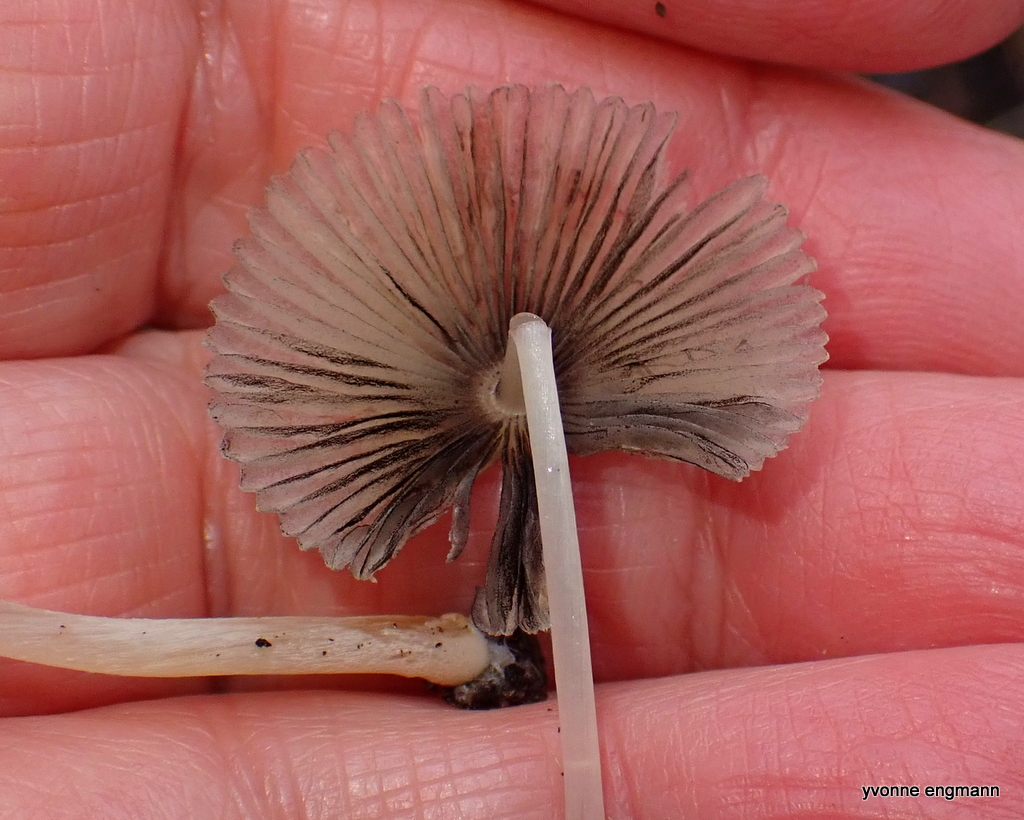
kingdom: Fungi
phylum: Basidiomycota
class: Agaricomycetes
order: Agaricales
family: Psathyrellaceae
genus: Parasola
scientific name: Parasola
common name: hjulhat
